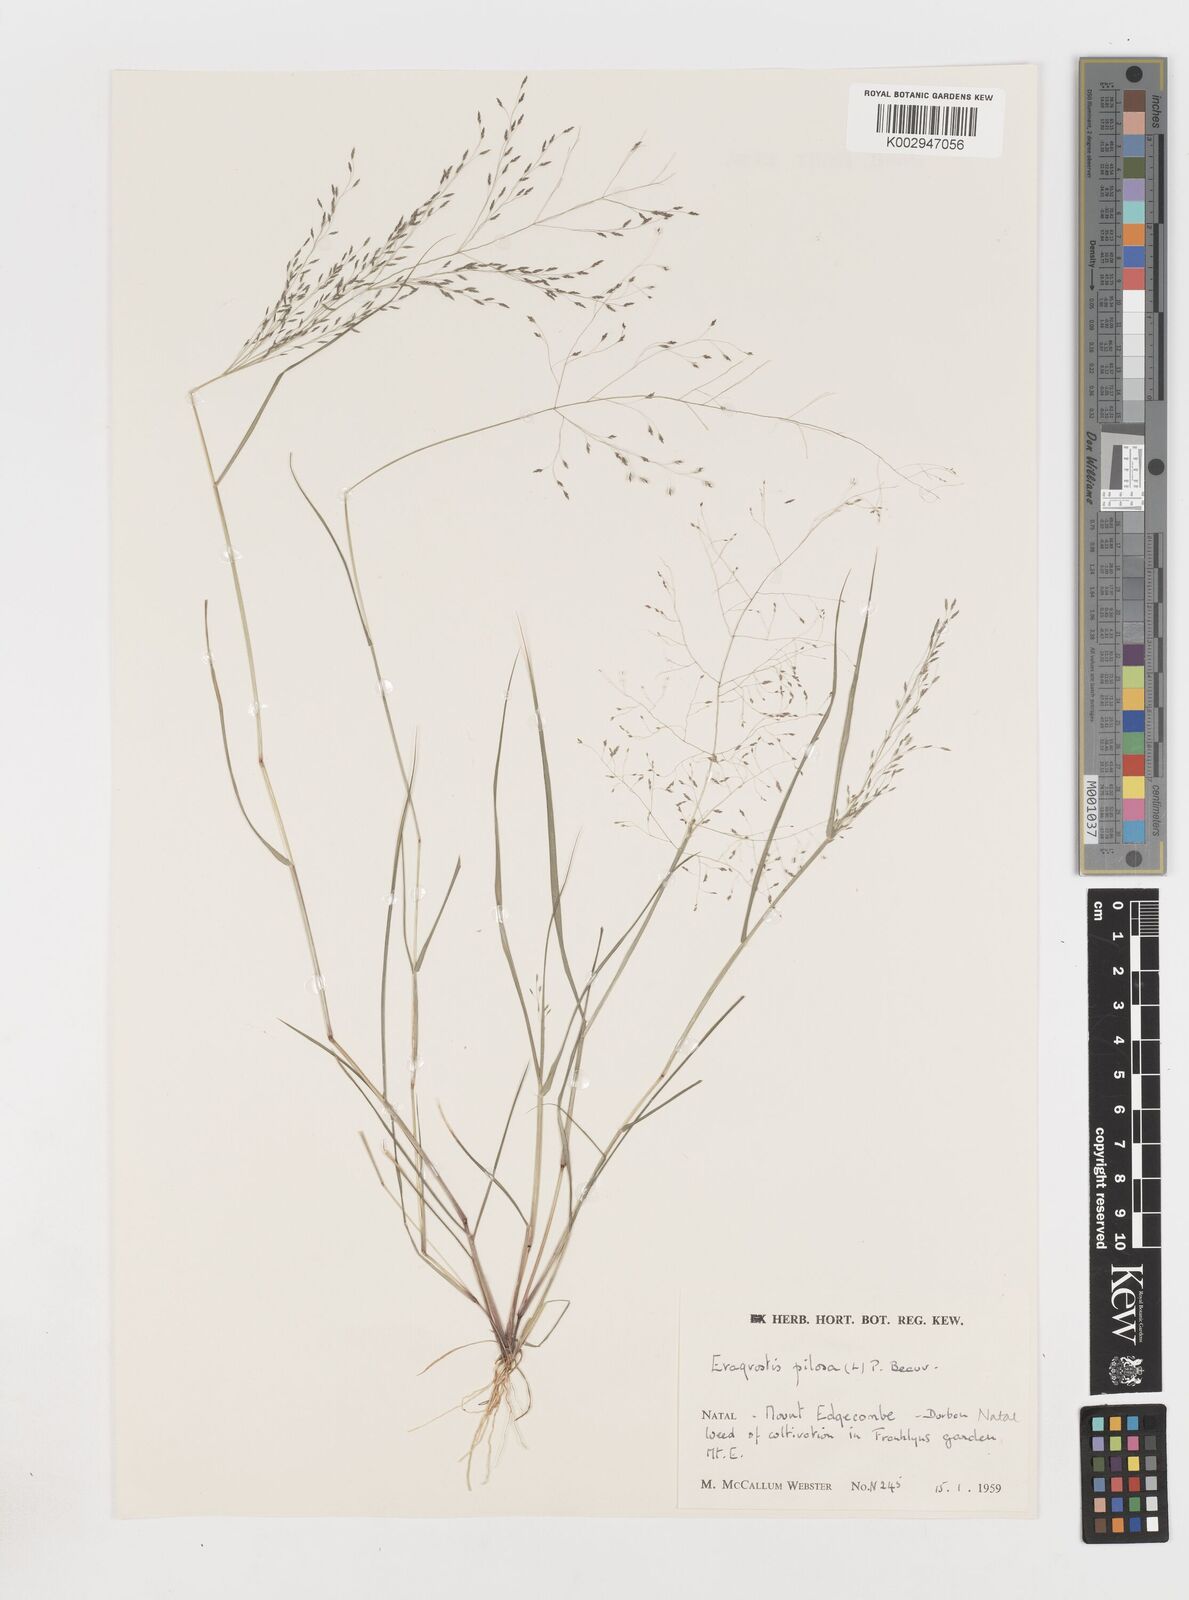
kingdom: Plantae
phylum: Tracheophyta
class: Liliopsida
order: Poales
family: Poaceae
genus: Eragrostis
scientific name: Eragrostis pilosa
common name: Indian lovegrass
